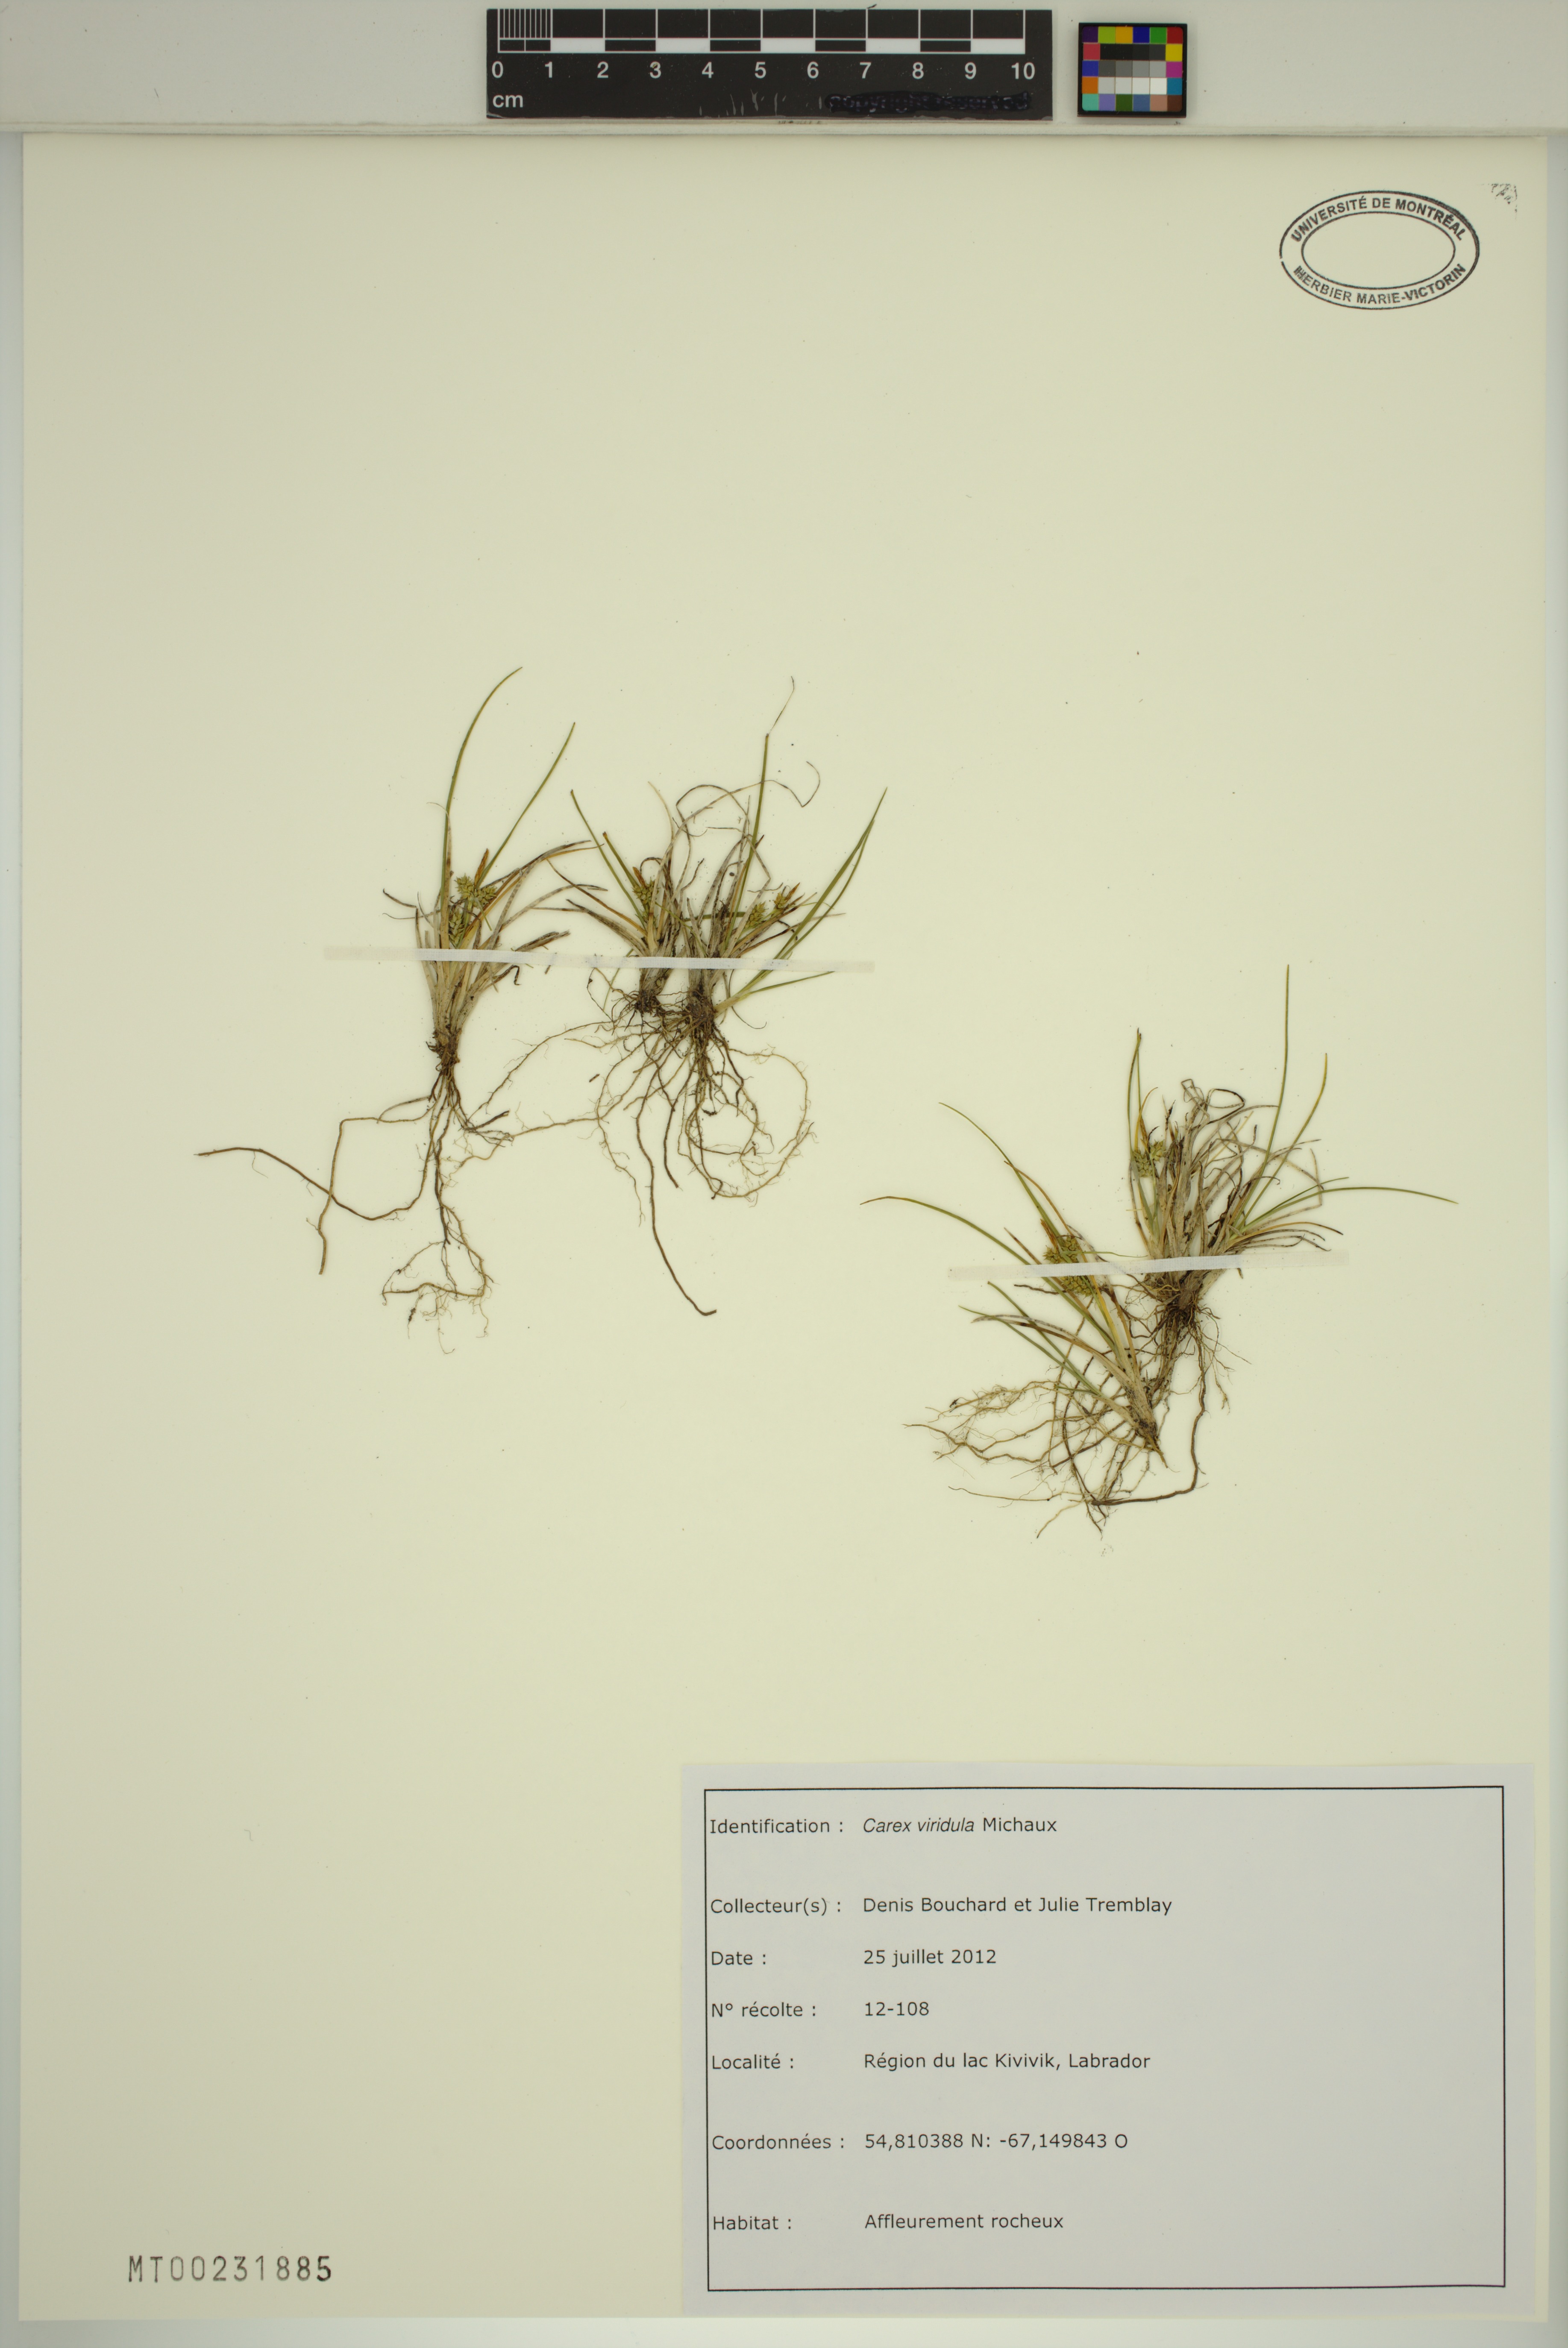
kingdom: Plantae
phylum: Tracheophyta
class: Liliopsida
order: Poales
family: Cyperaceae
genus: Carex
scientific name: Carex oederi
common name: Common & small-fruited yellow-sedge
